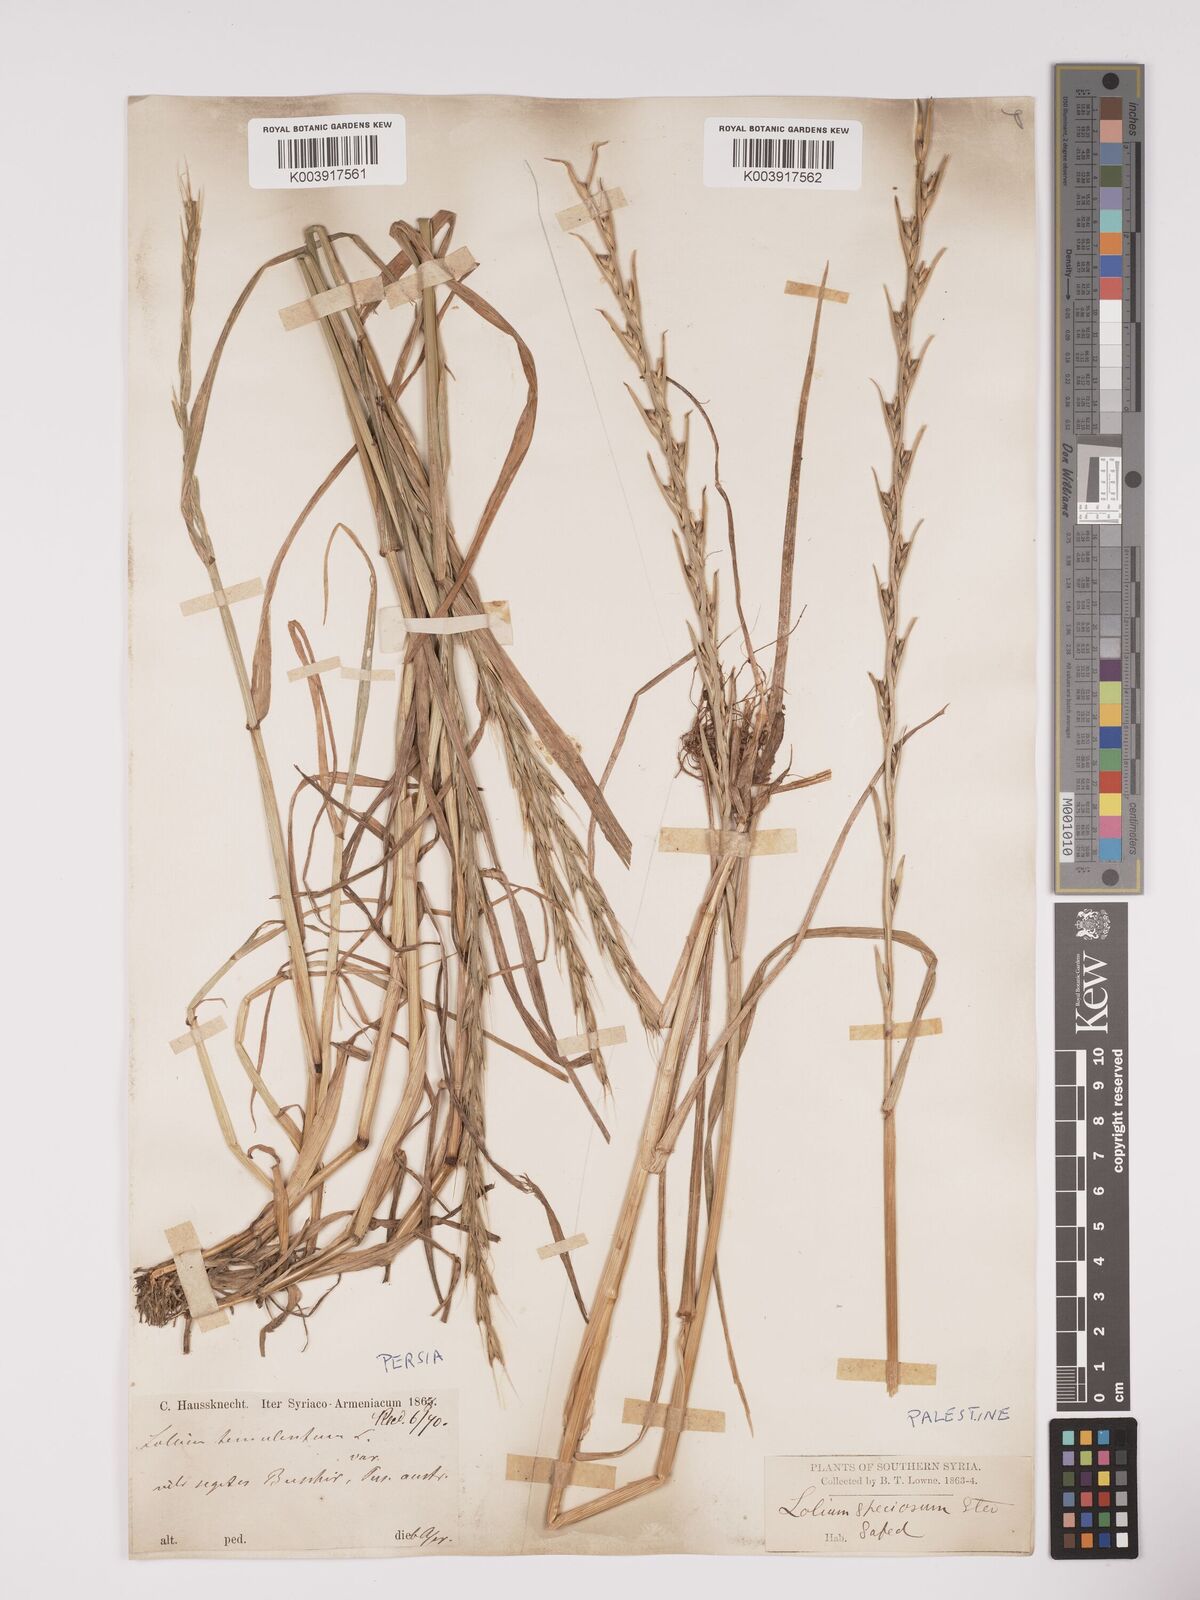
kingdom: Plantae
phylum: Tracheophyta
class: Liliopsida
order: Poales
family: Poaceae
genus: Lolium
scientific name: Lolium temulentum
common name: Darnel
